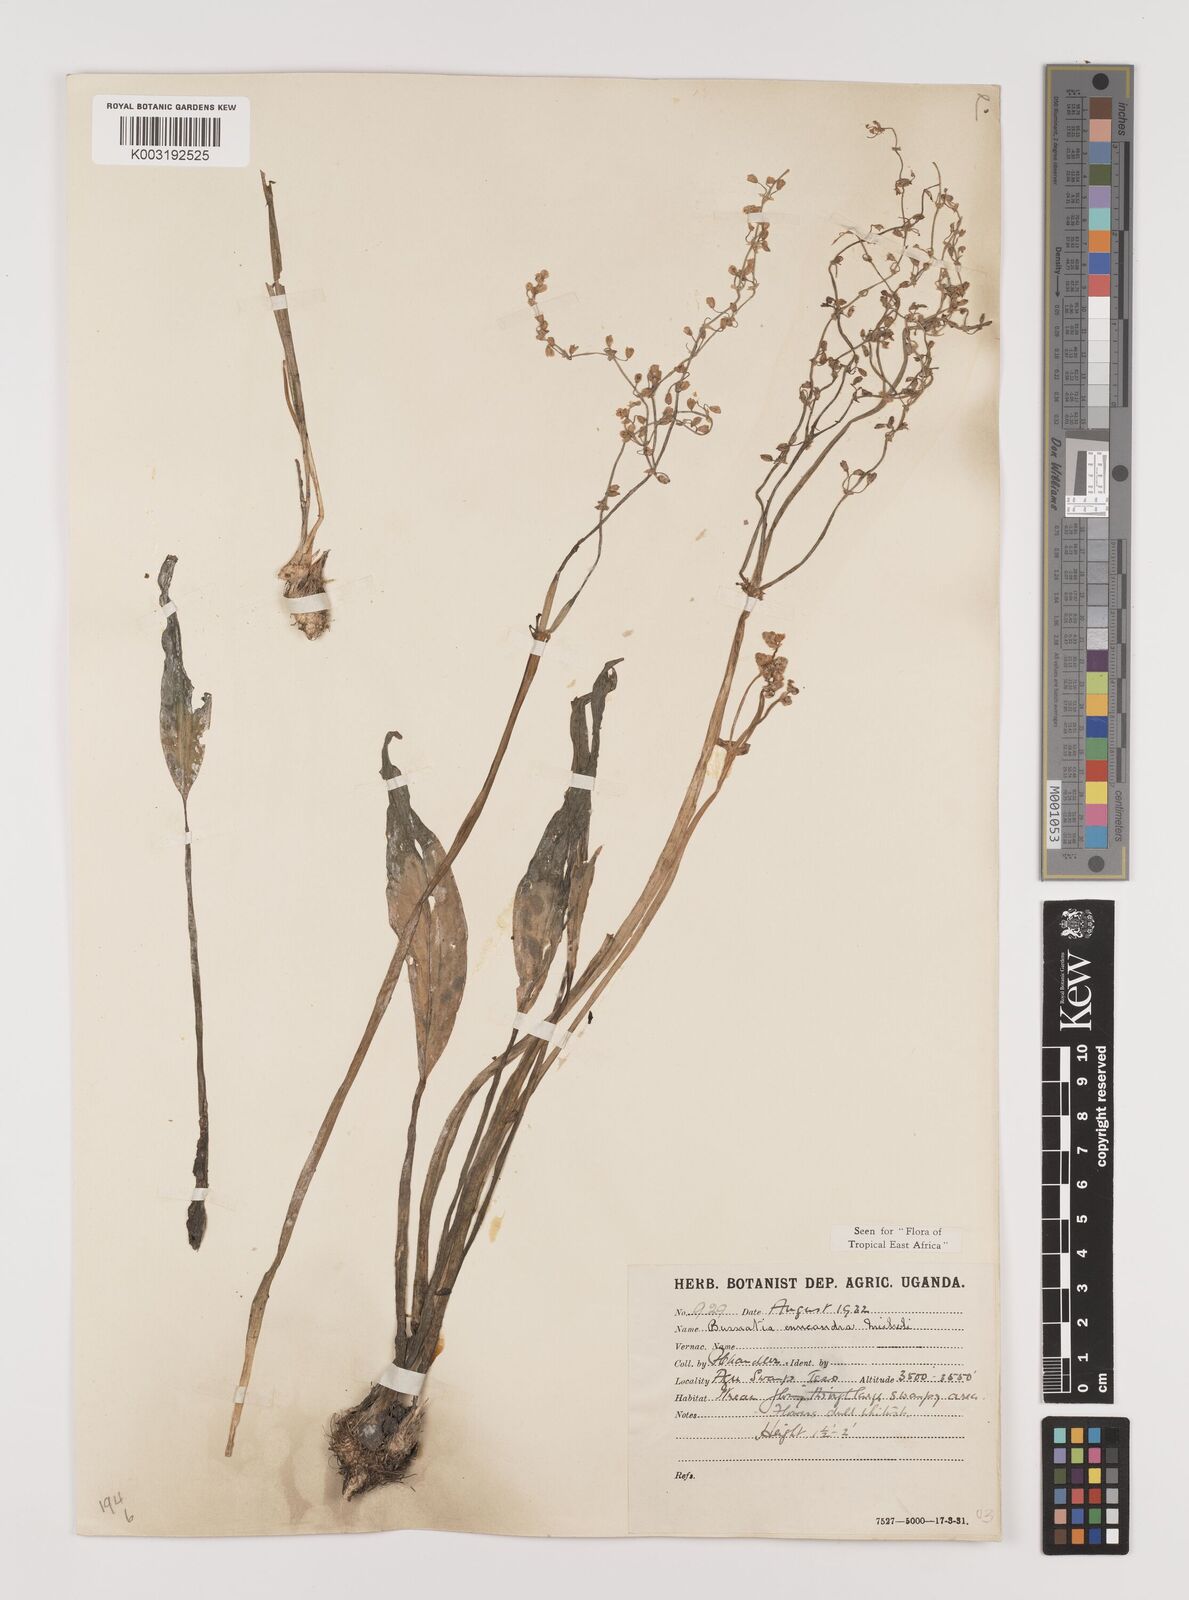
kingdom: Plantae
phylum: Tracheophyta
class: Liliopsida
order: Alismatales
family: Alismataceae
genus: Burnatia
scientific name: Burnatia enneandra
